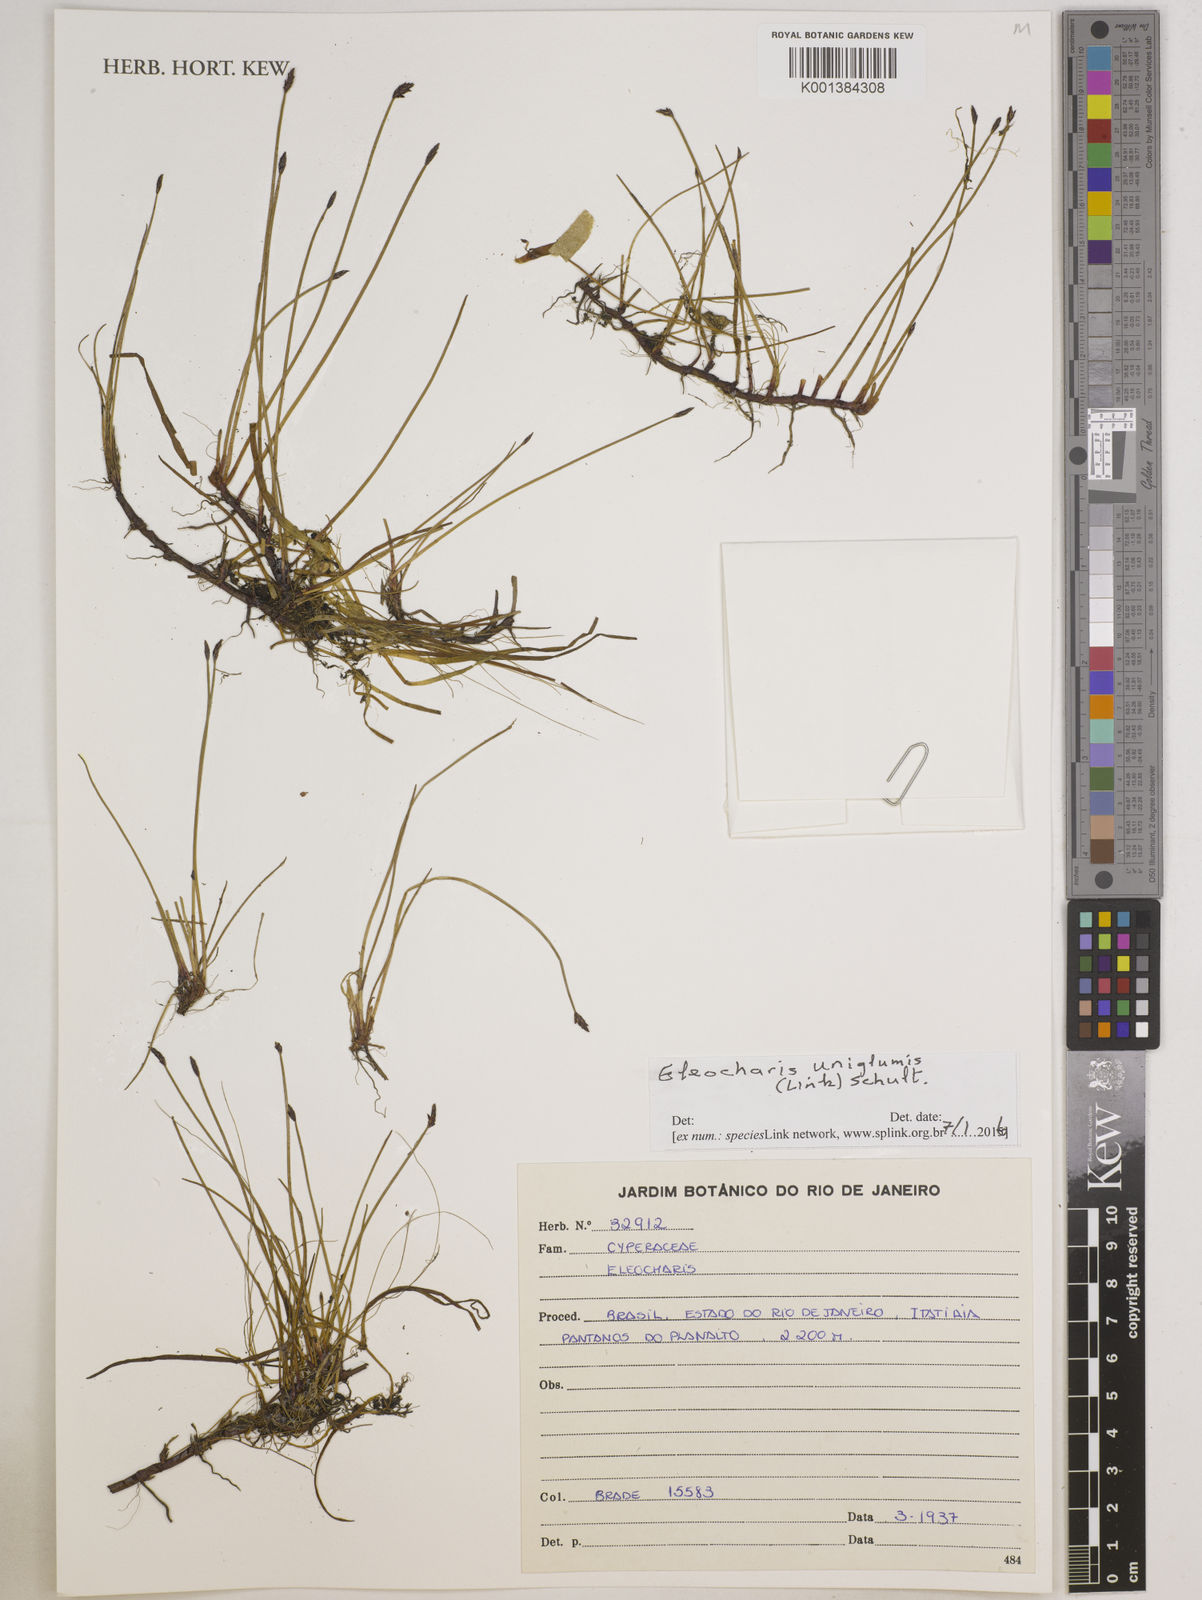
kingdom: Plantae
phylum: Tracheophyta
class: Liliopsida
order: Poales
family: Cyperaceae
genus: Eleocharis
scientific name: Eleocharis uniglumis
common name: Slender spike-rush
